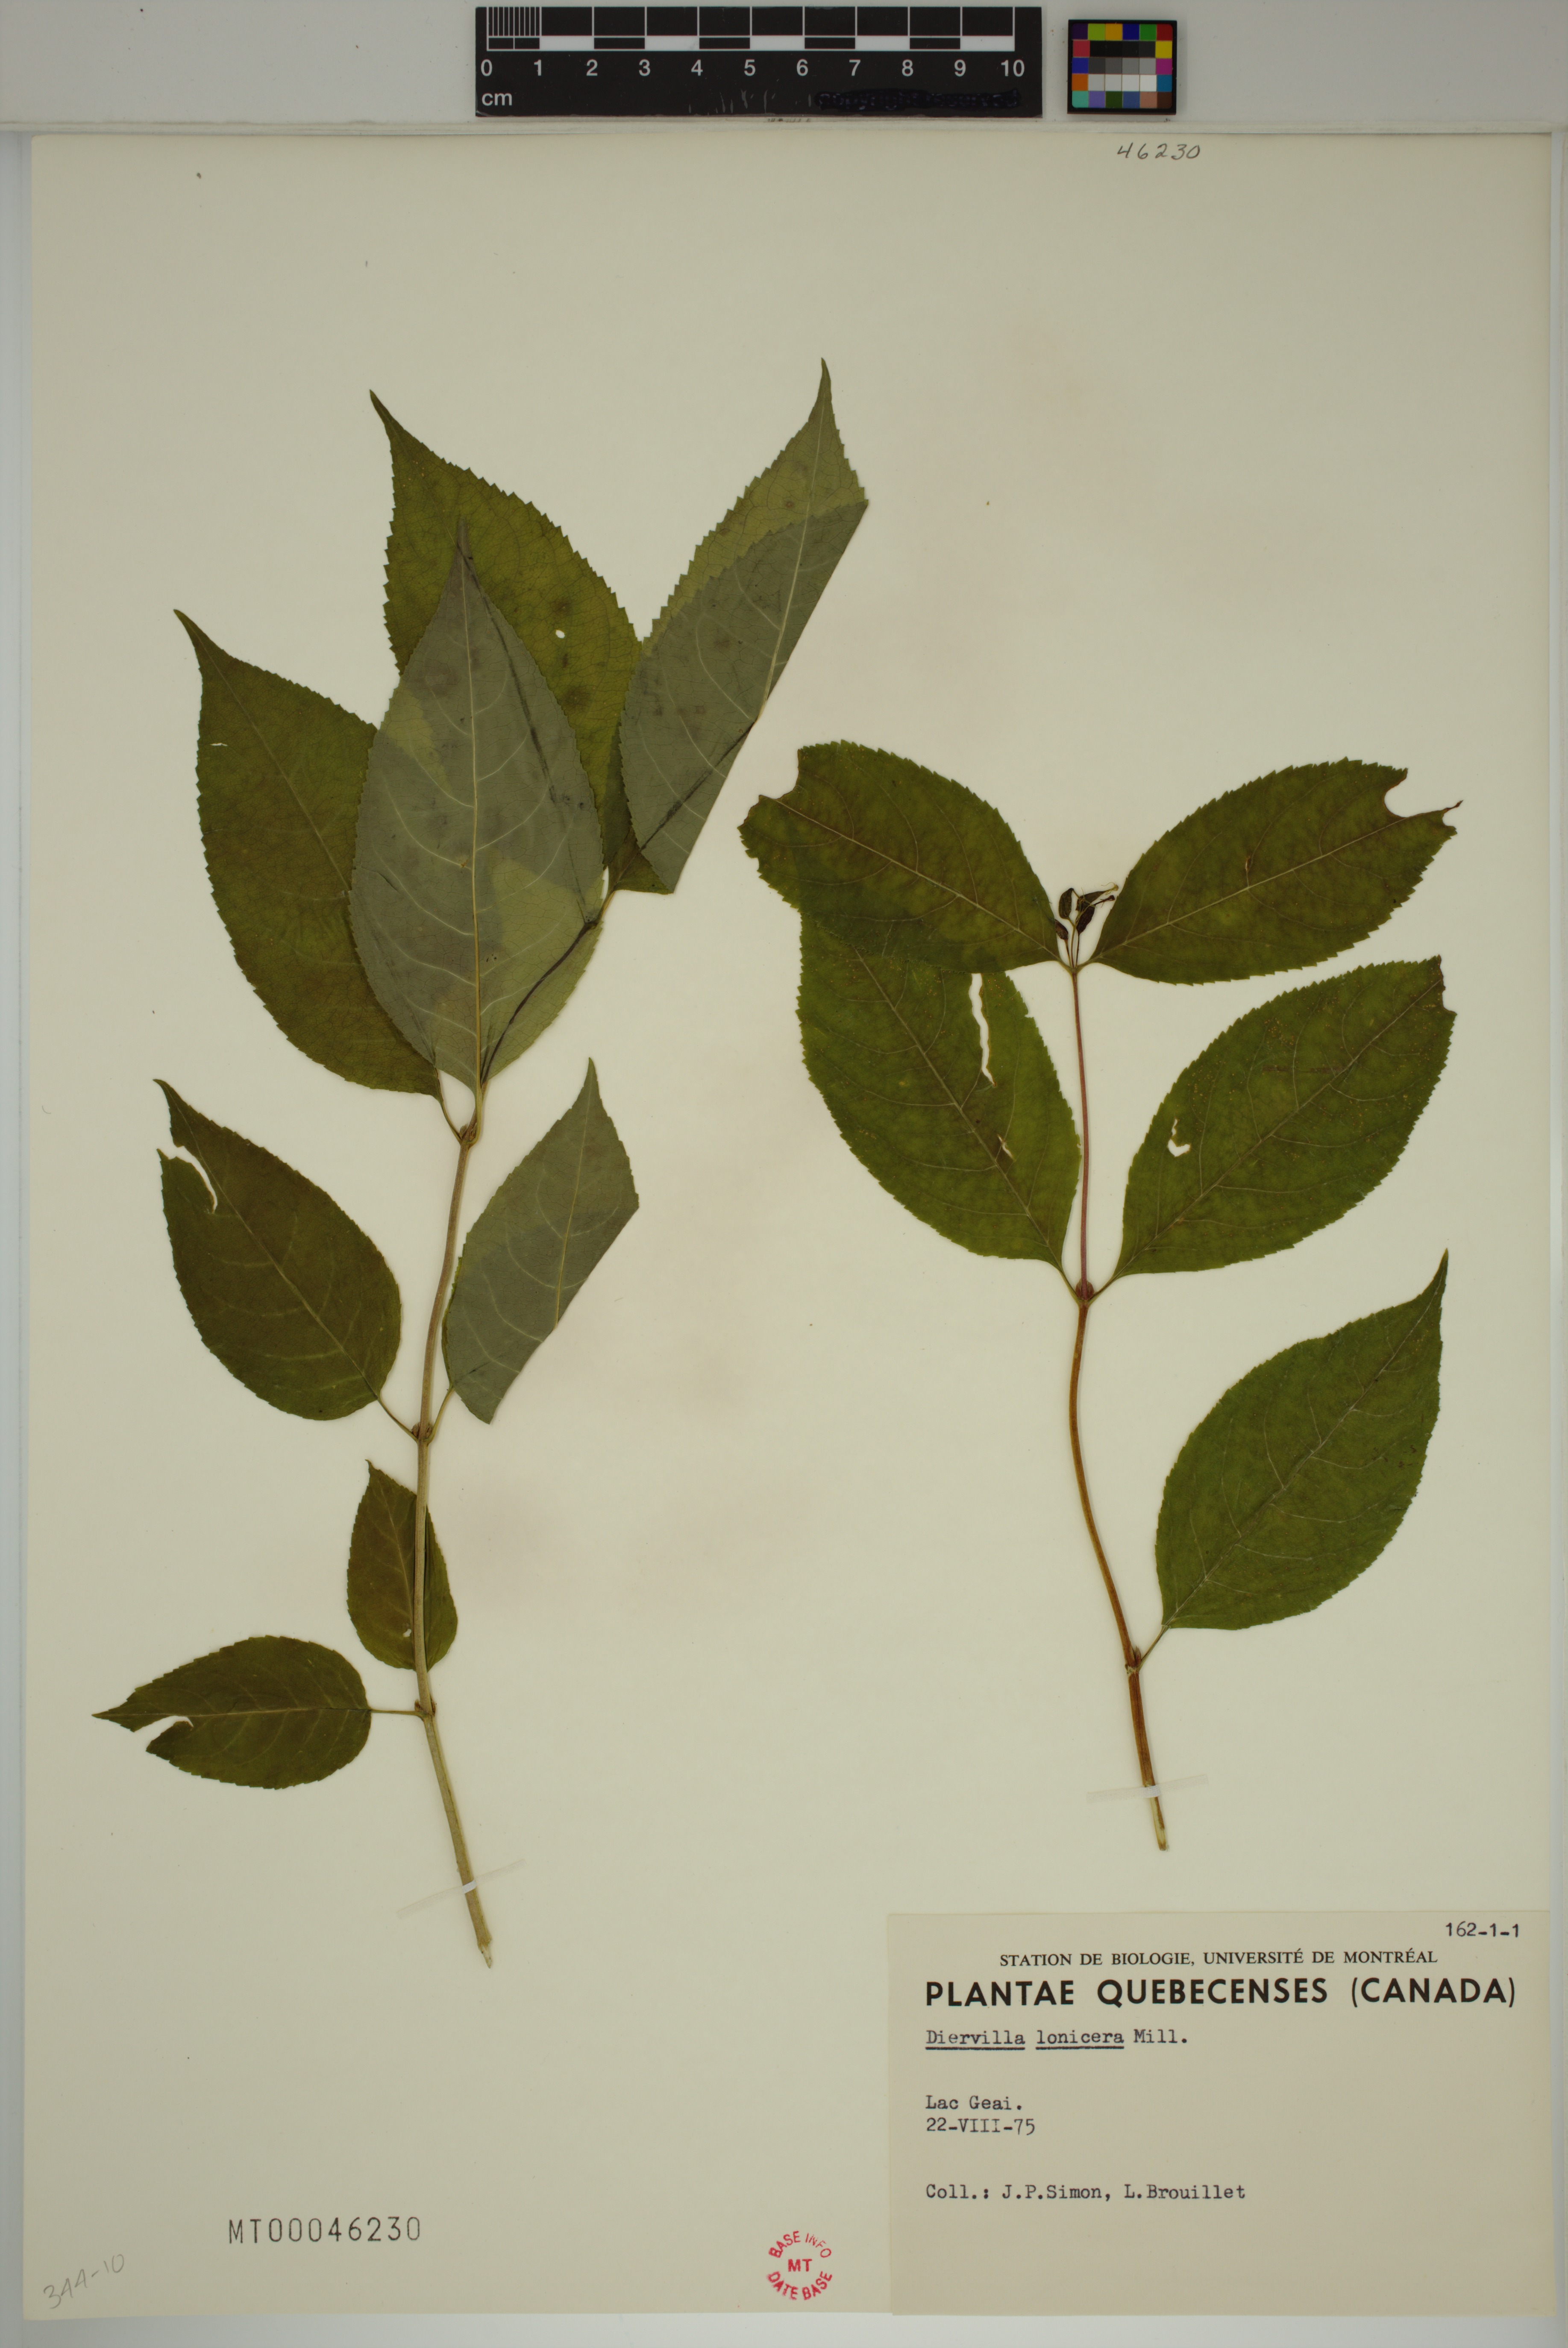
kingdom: Plantae
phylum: Tracheophyta
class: Magnoliopsida
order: Dipsacales
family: Caprifoliaceae
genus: Diervilla
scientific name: Diervilla lonicera
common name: Bush-honeysuckle
